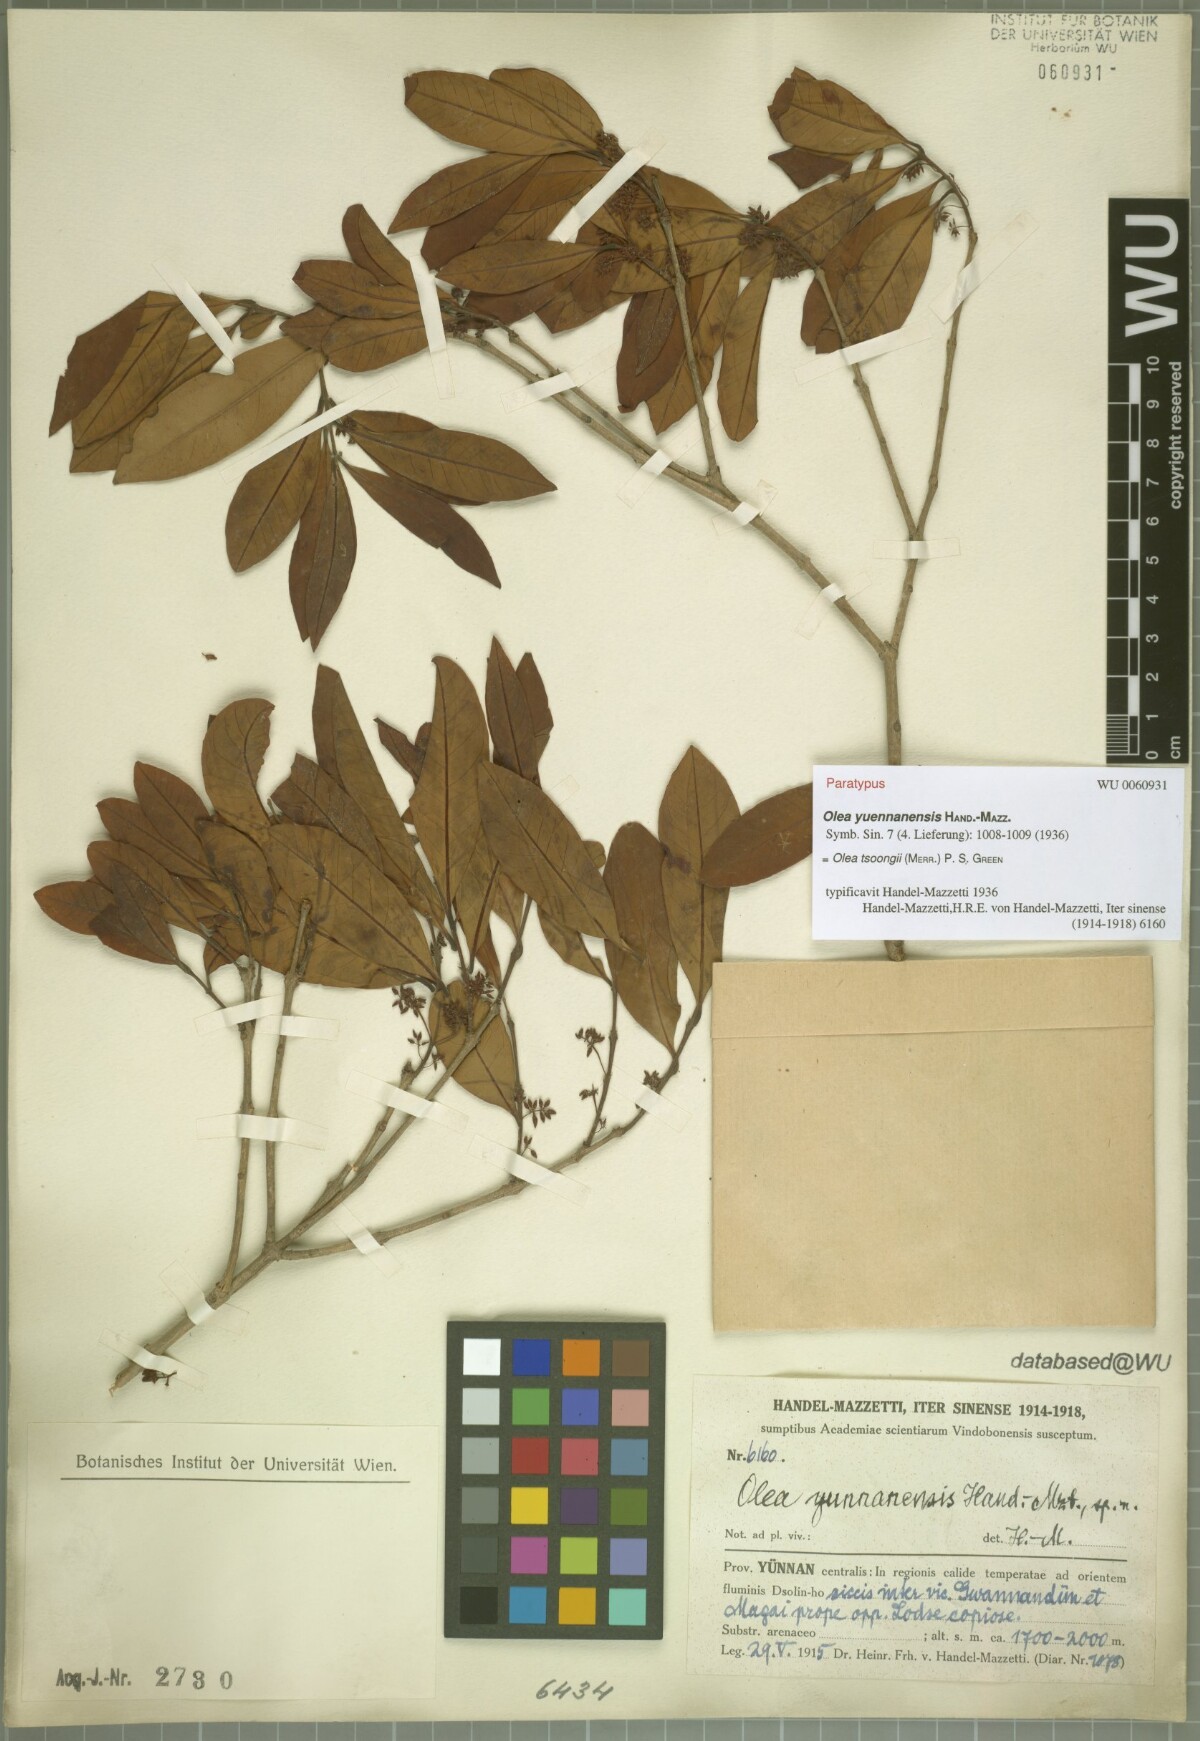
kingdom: Plantae
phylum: Tracheophyta
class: Magnoliopsida
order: Lamiales
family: Oleaceae
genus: Tetrapilus
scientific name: Tetrapilus tsoongii
